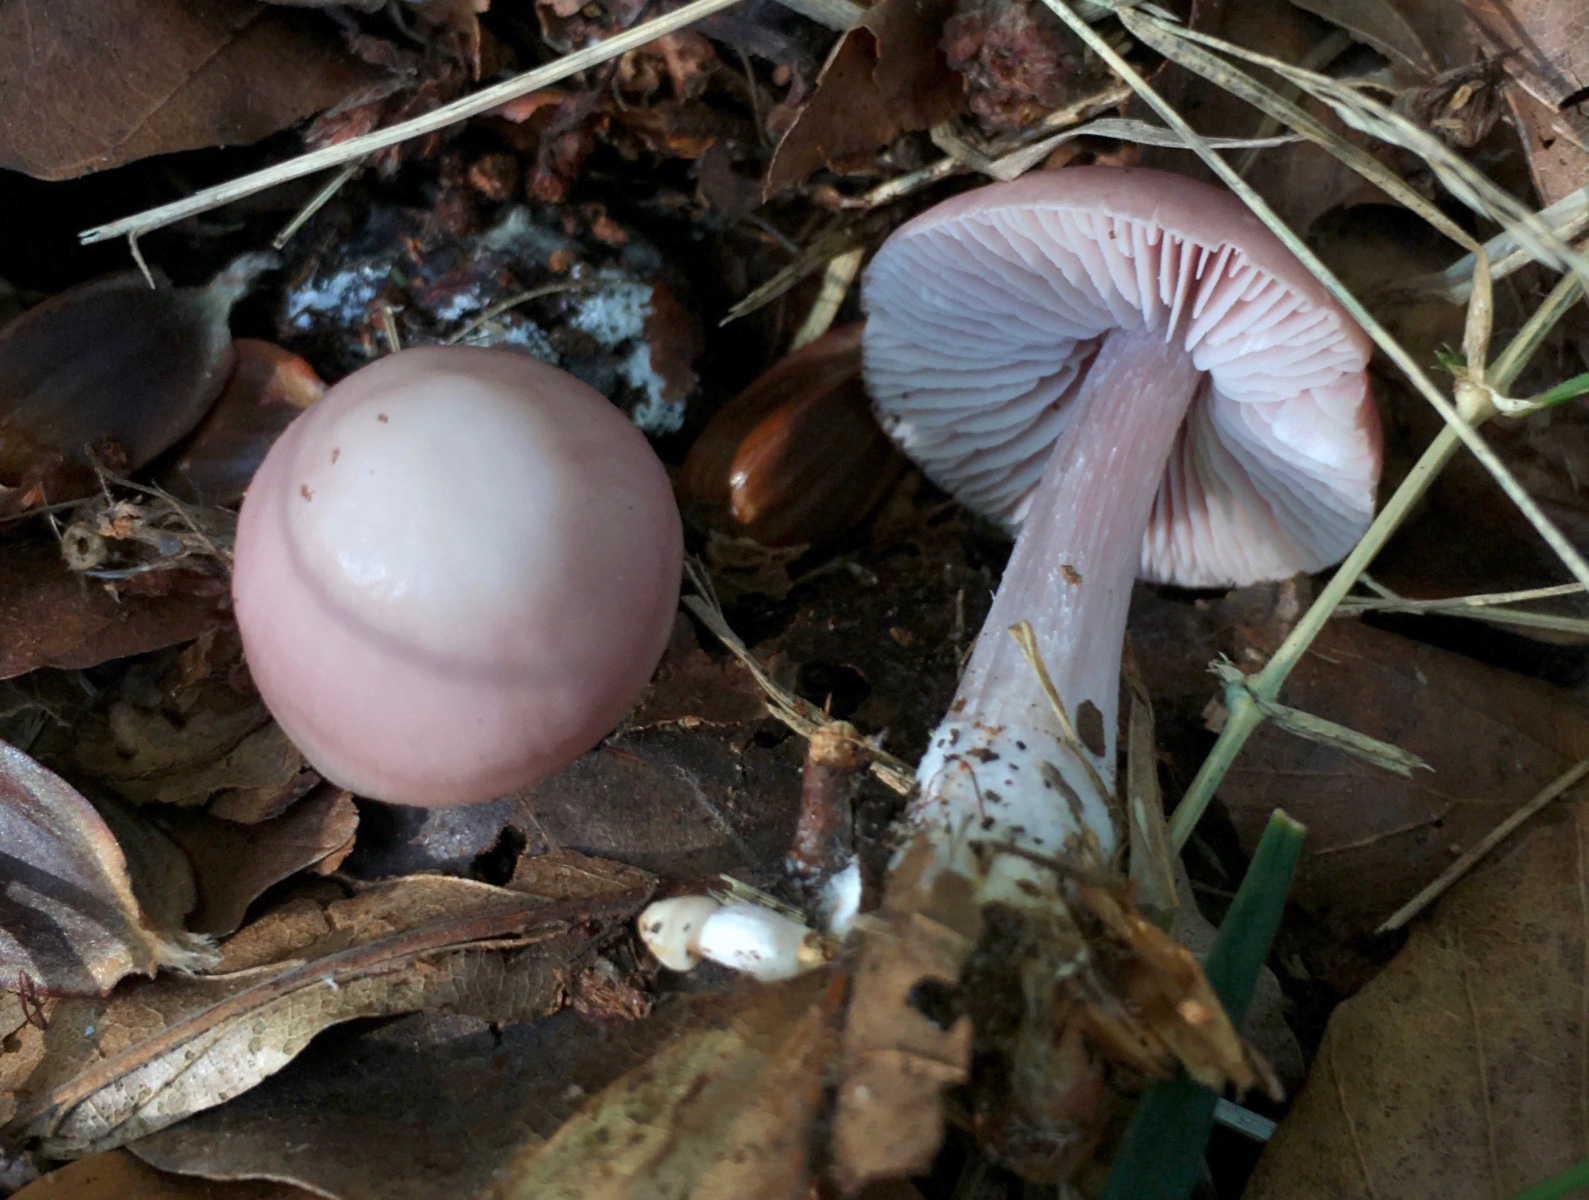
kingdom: Fungi
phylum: Basidiomycota
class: Agaricomycetes
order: Agaricales
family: Mycenaceae
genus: Mycena
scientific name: Mycena rosea
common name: rosa huesvamp
